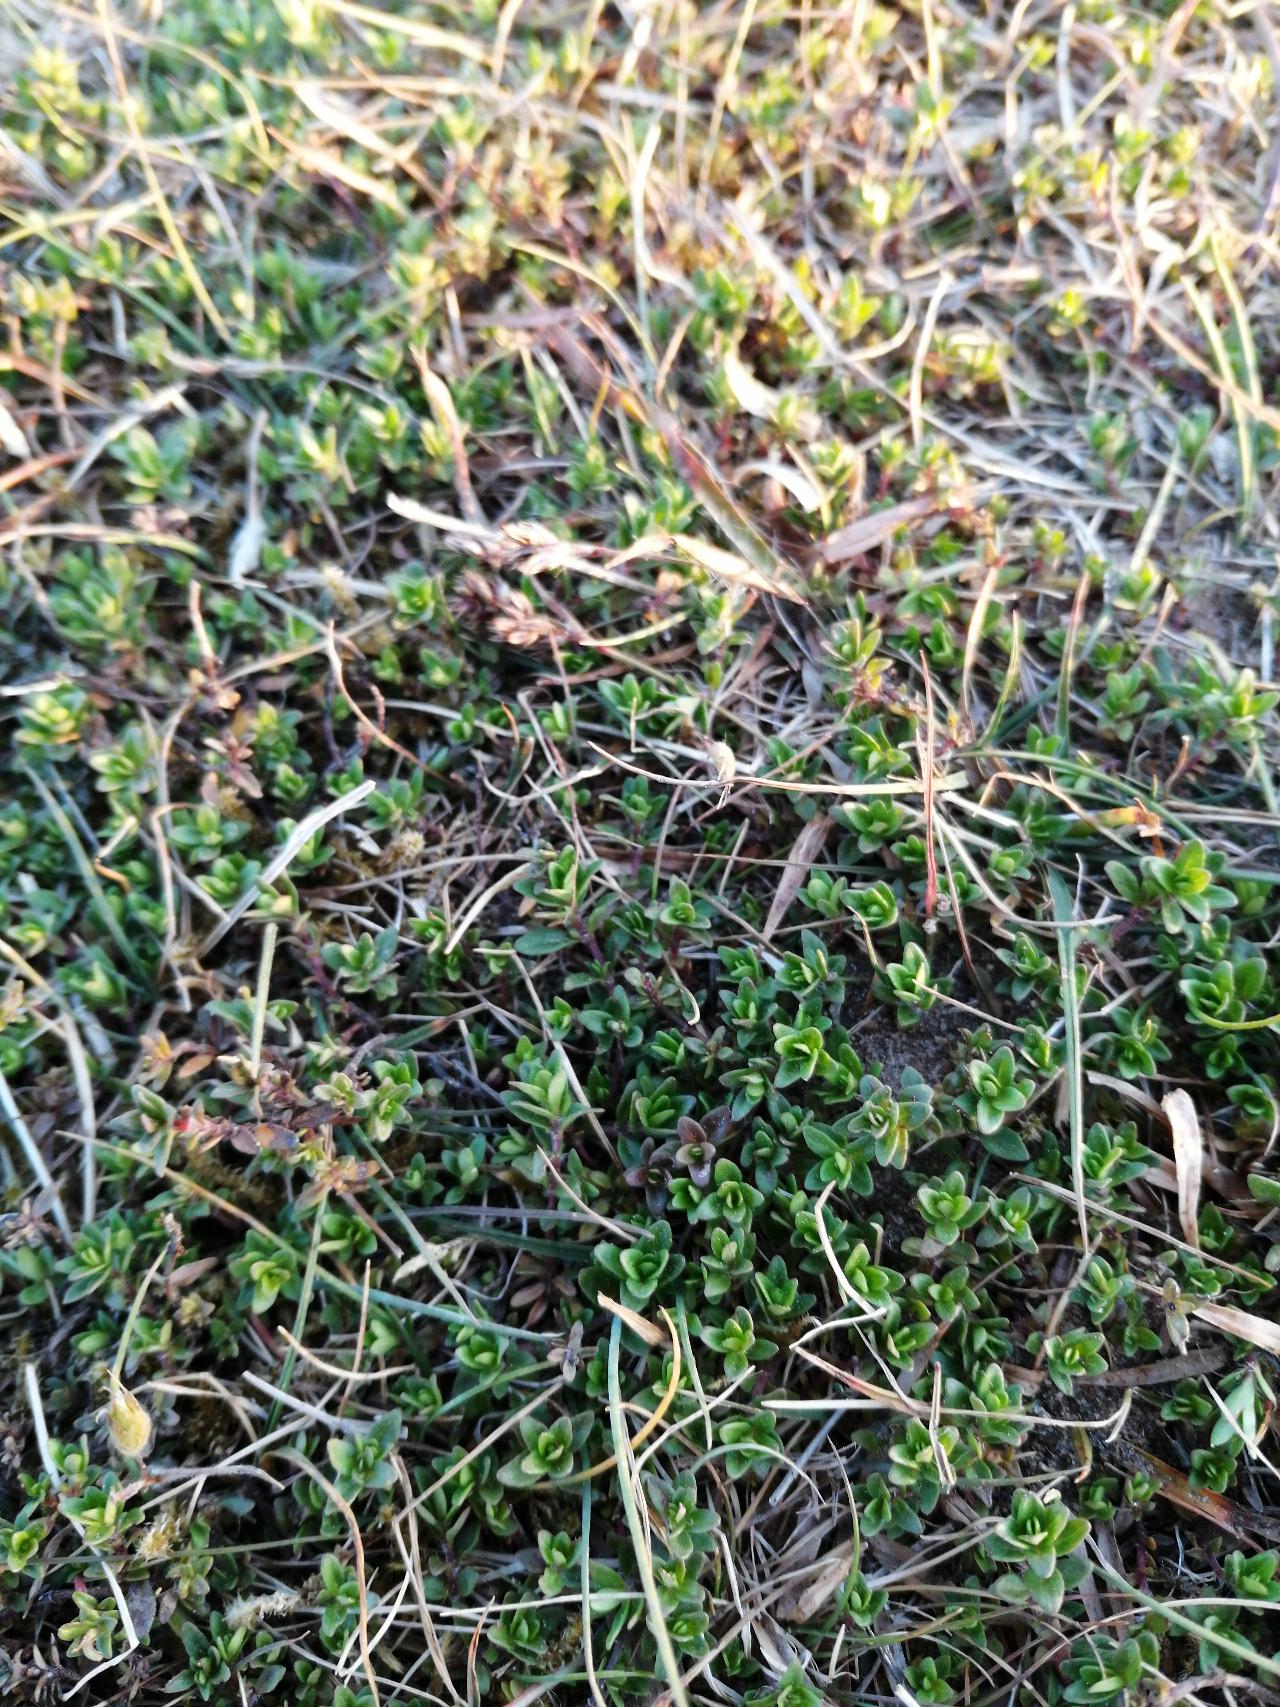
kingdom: Plantae
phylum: Tracheophyta
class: Magnoliopsida
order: Lamiales
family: Lamiaceae
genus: Thymus
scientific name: Thymus serpyllum
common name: Smalbladet timian
